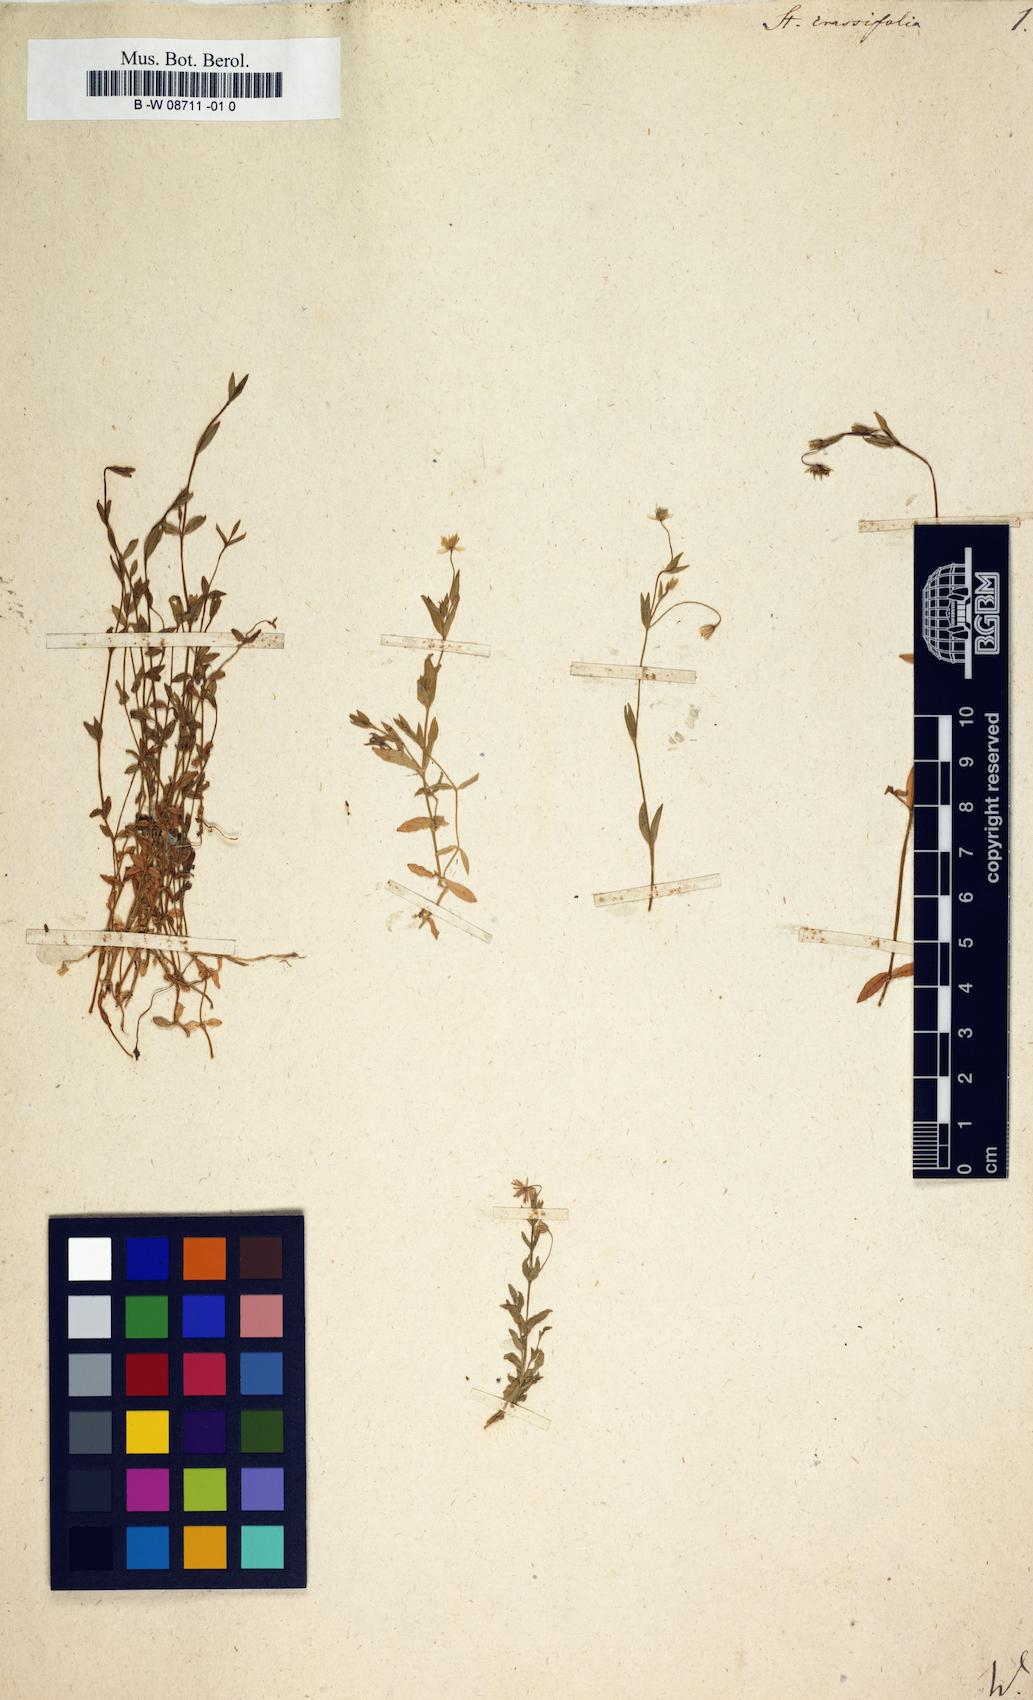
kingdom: Plantae
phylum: Tracheophyta
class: Magnoliopsida
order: Caryophyllales
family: Caryophyllaceae
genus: Stellaria
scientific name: Stellaria crassifolia
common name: Fleshy starwort
